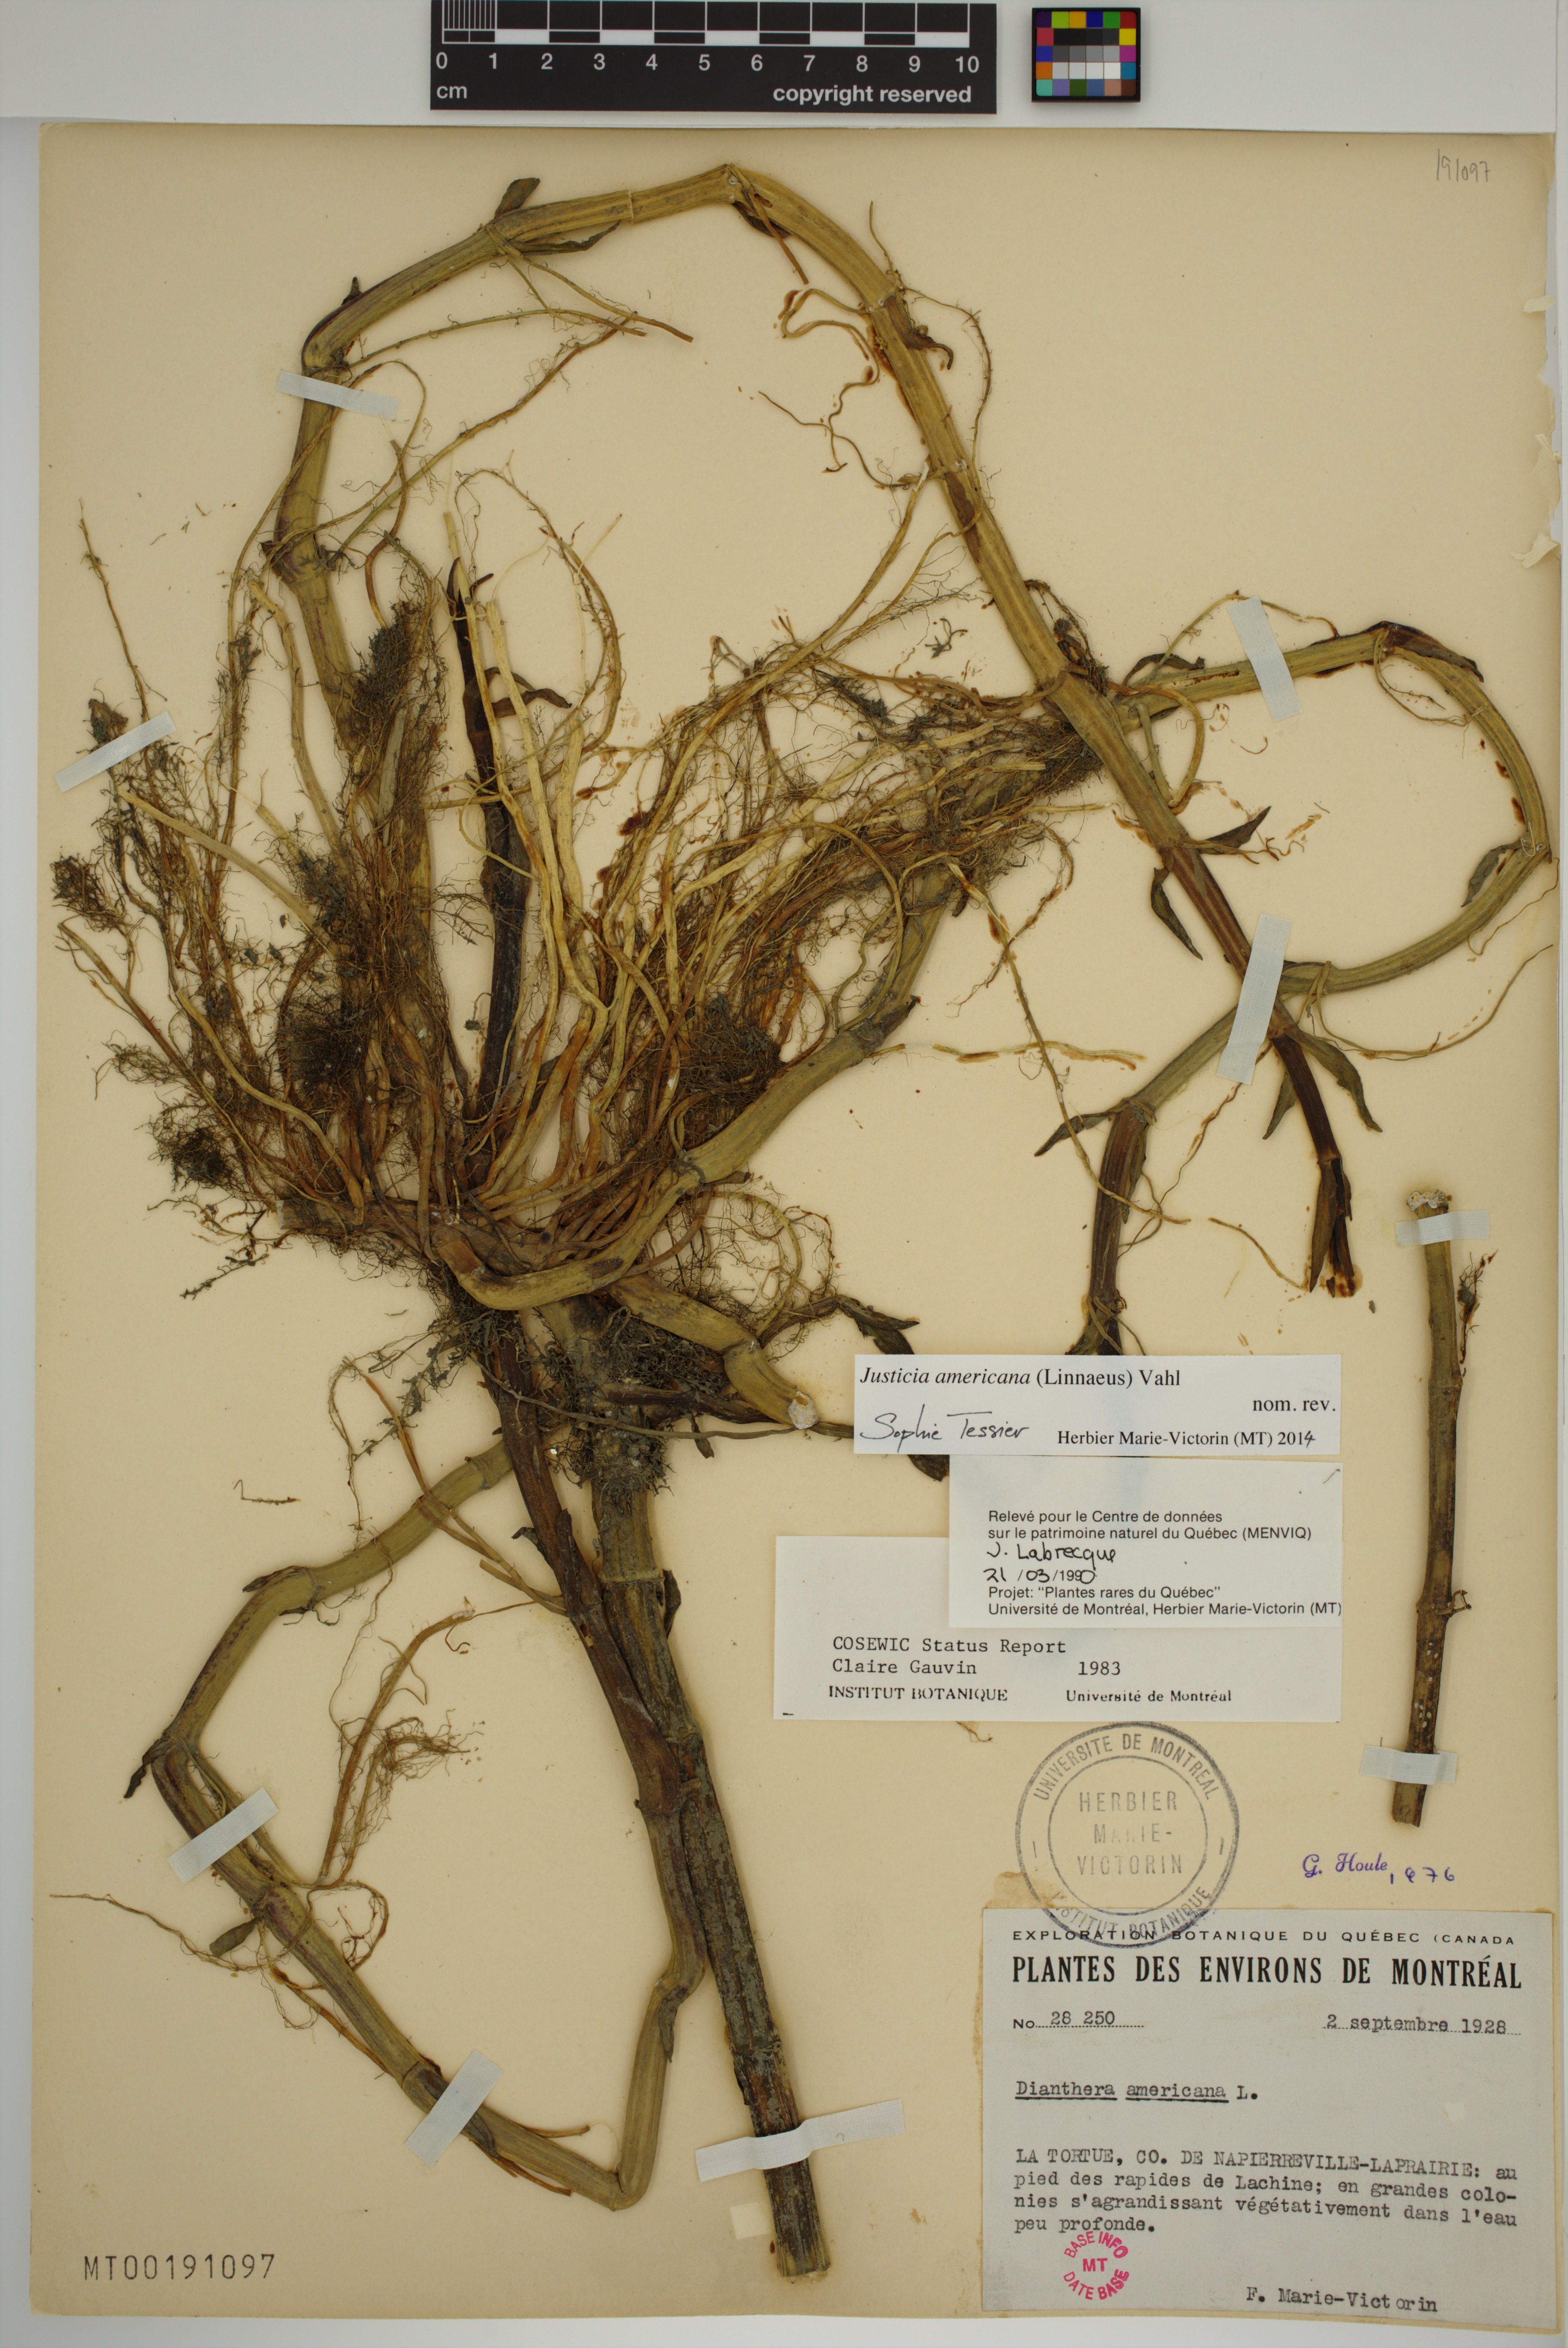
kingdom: Plantae
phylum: Tracheophyta
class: Magnoliopsida
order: Lamiales
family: Acanthaceae
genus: Dianthera
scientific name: Dianthera americana
